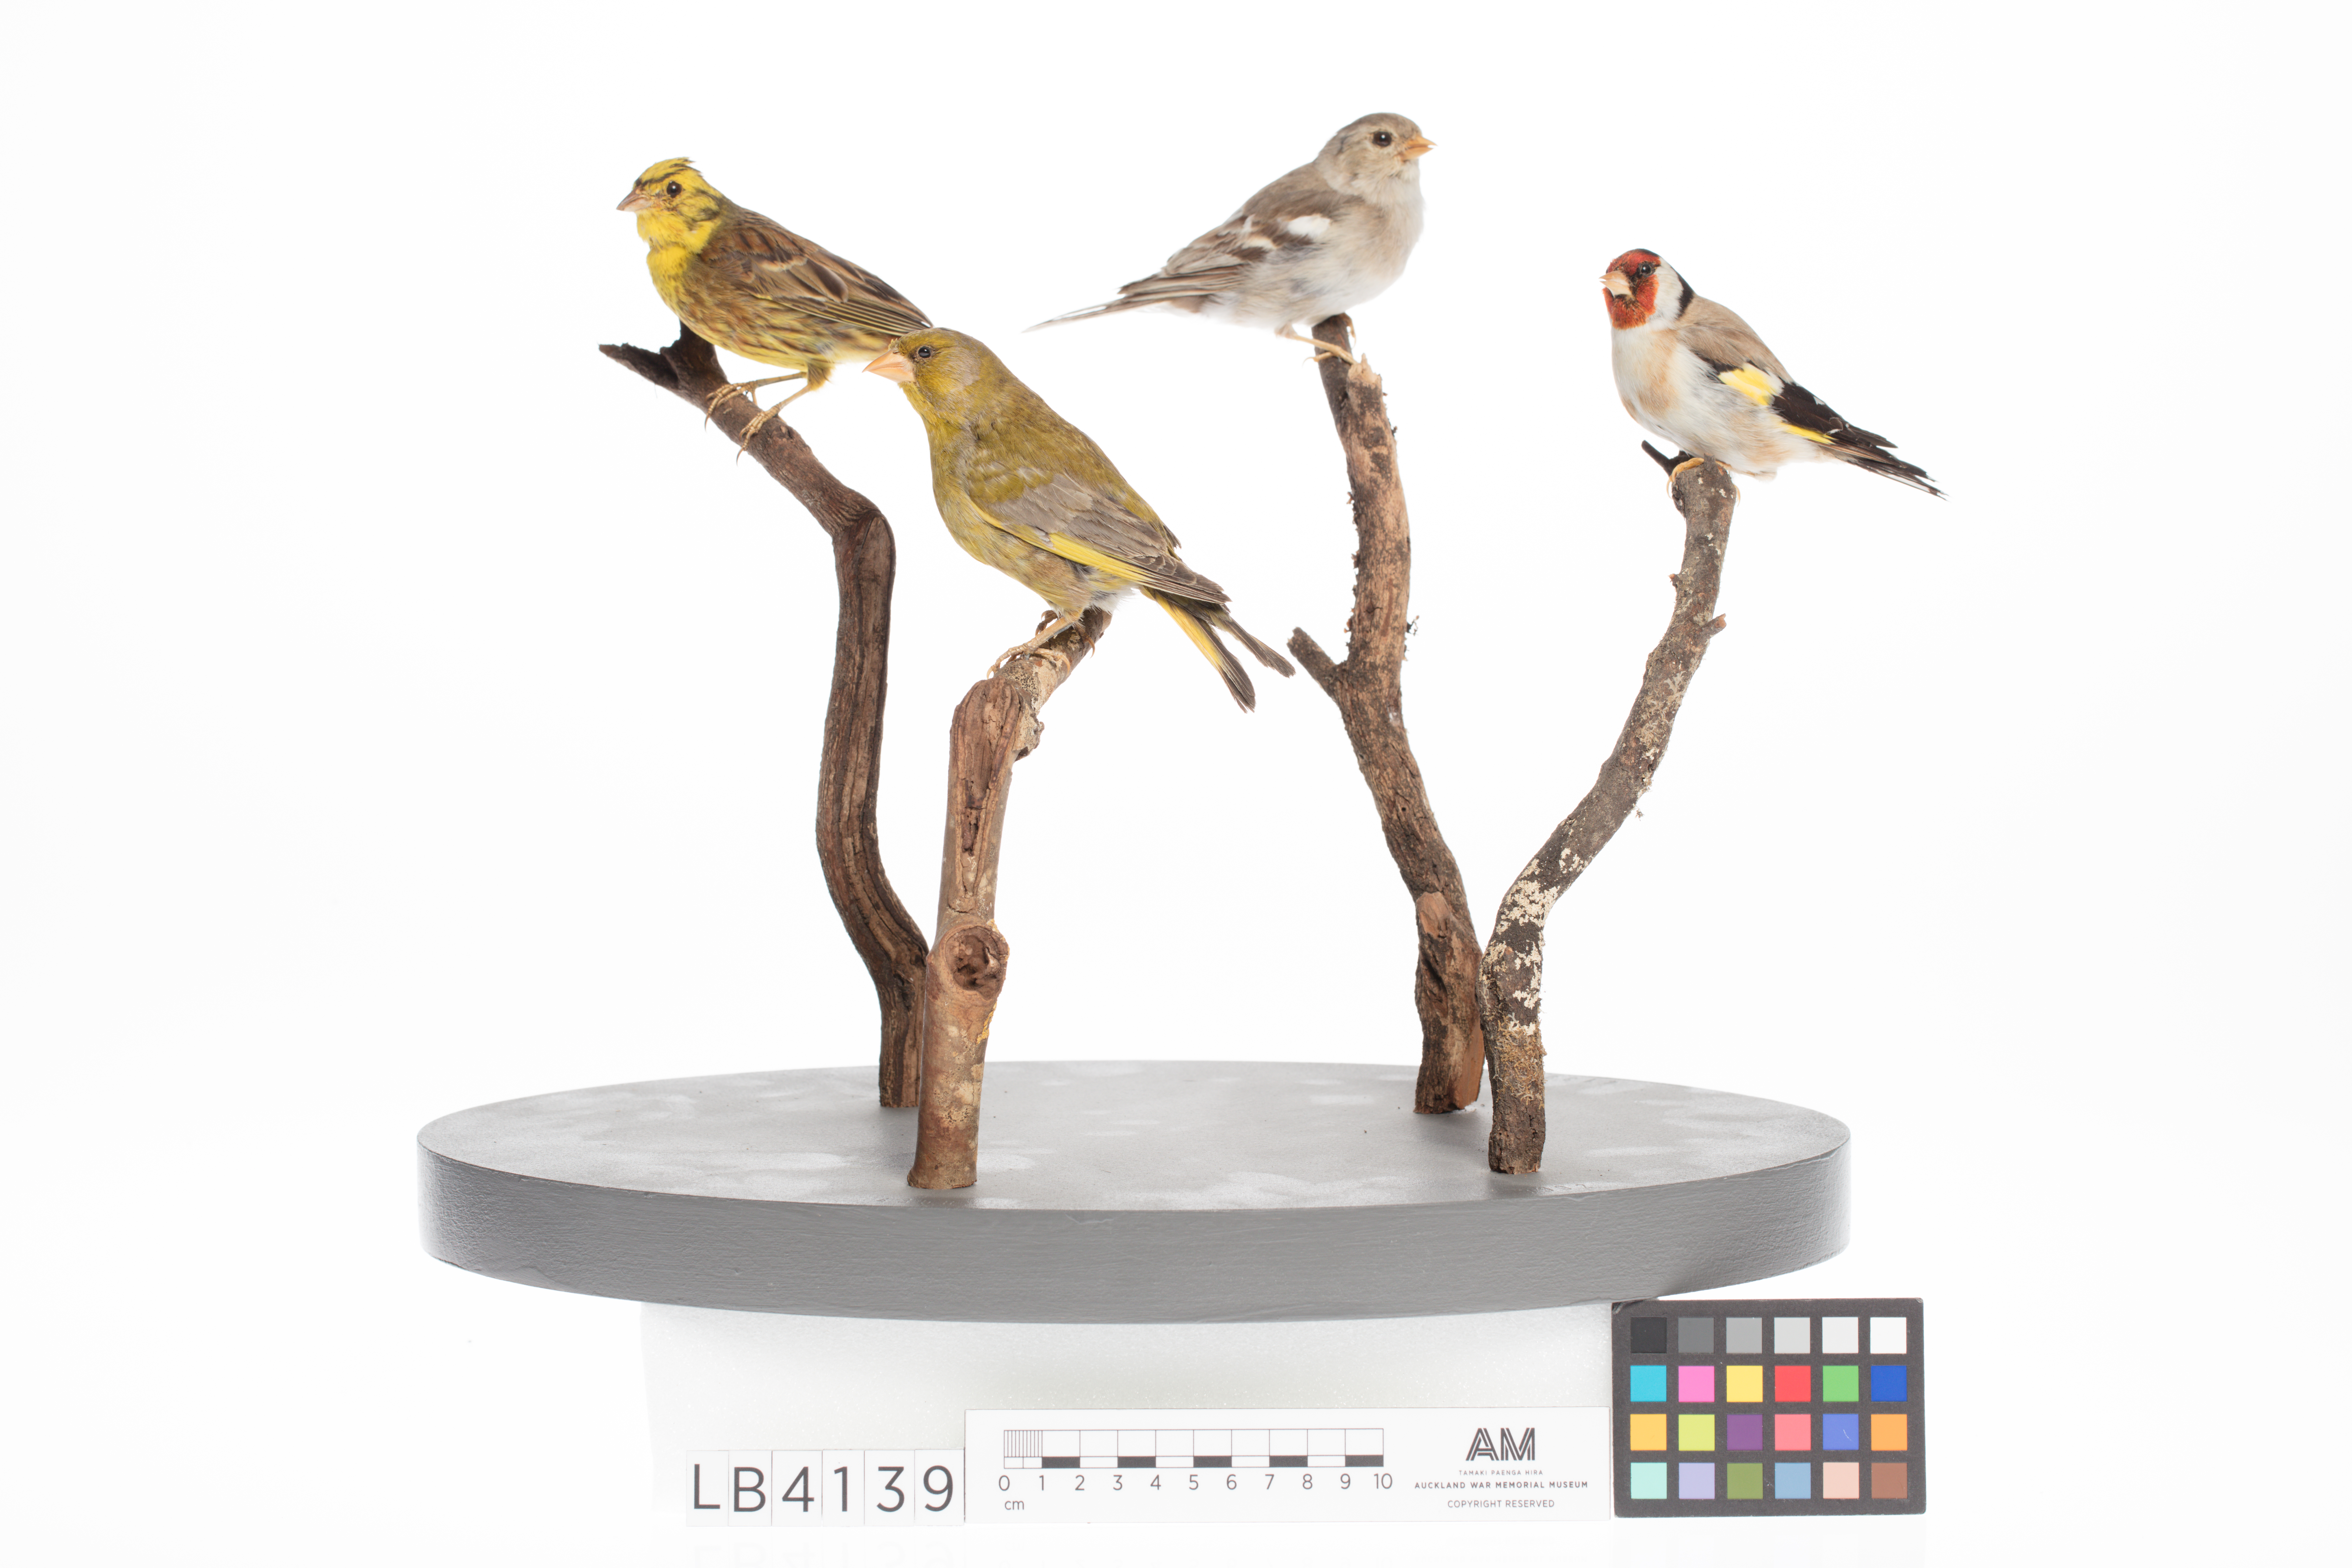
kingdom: Animalia
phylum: Chordata
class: Aves
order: Passeriformes
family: Fringillidae
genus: Fringilla
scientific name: Fringilla coelebs
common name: Common chaffinch
